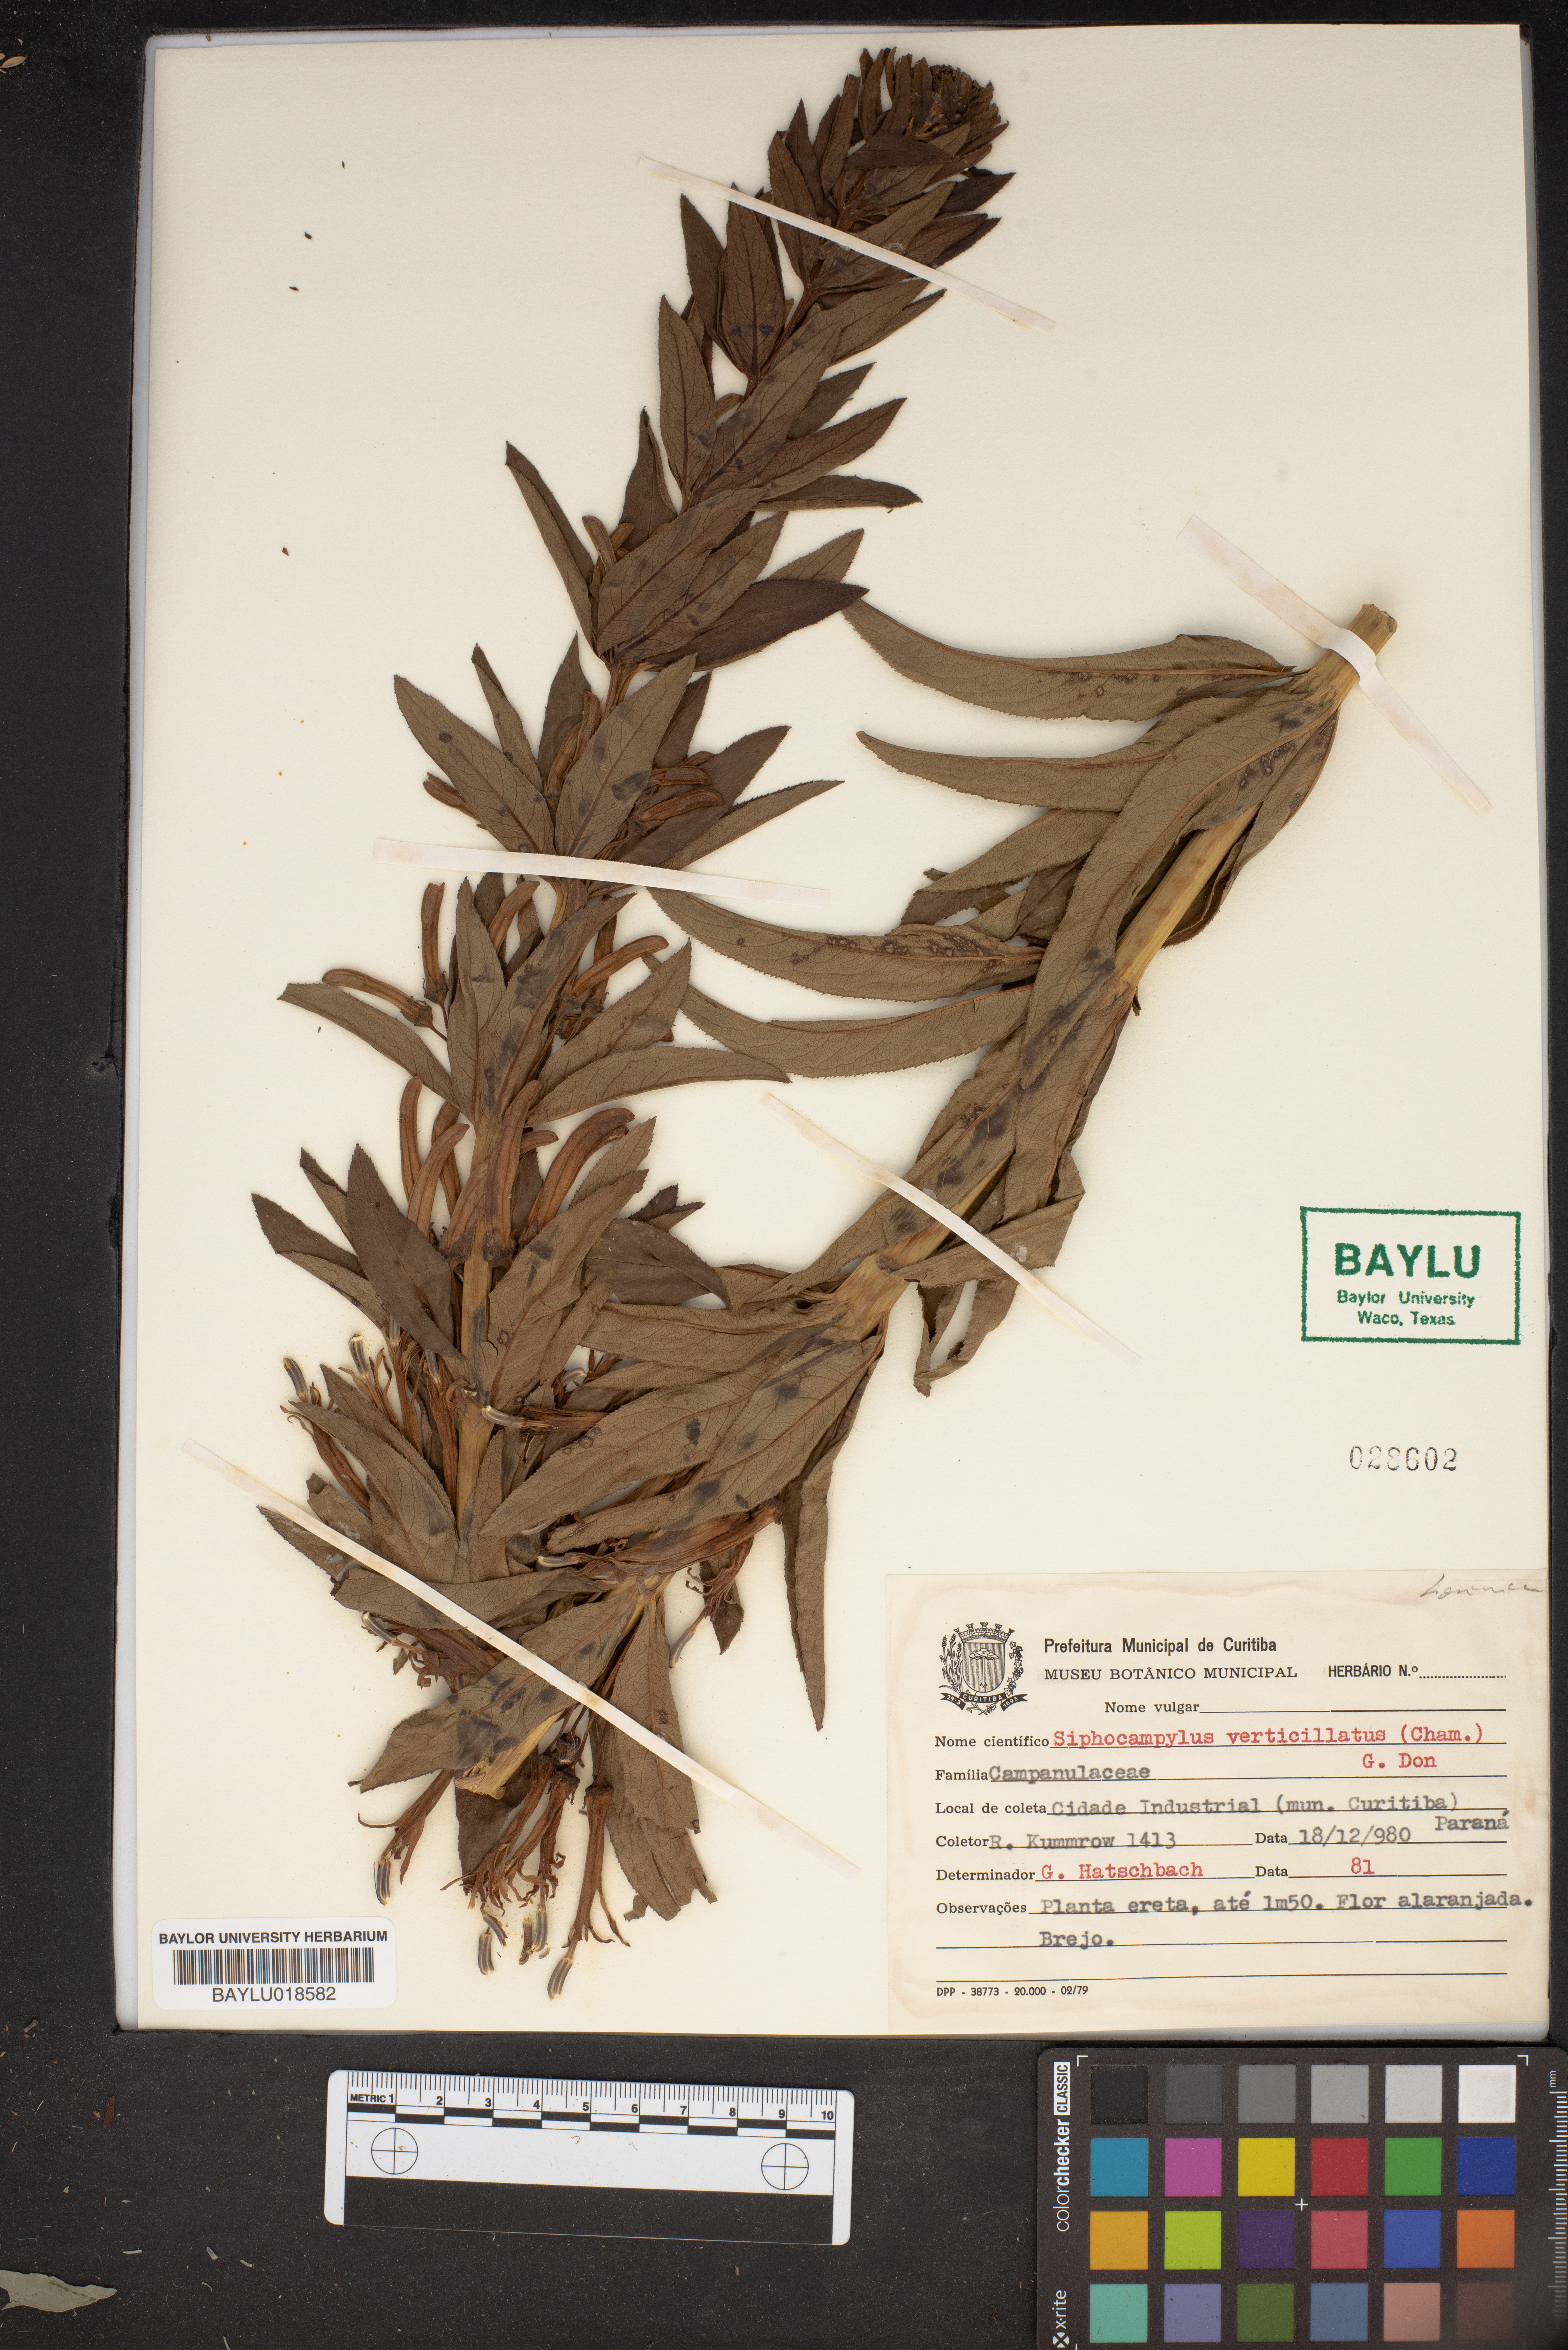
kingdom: Plantae
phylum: Tracheophyta
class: Magnoliopsida
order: Asterales
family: Campanulaceae
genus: Siphocampylus
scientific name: Siphocampylus verticillatus
